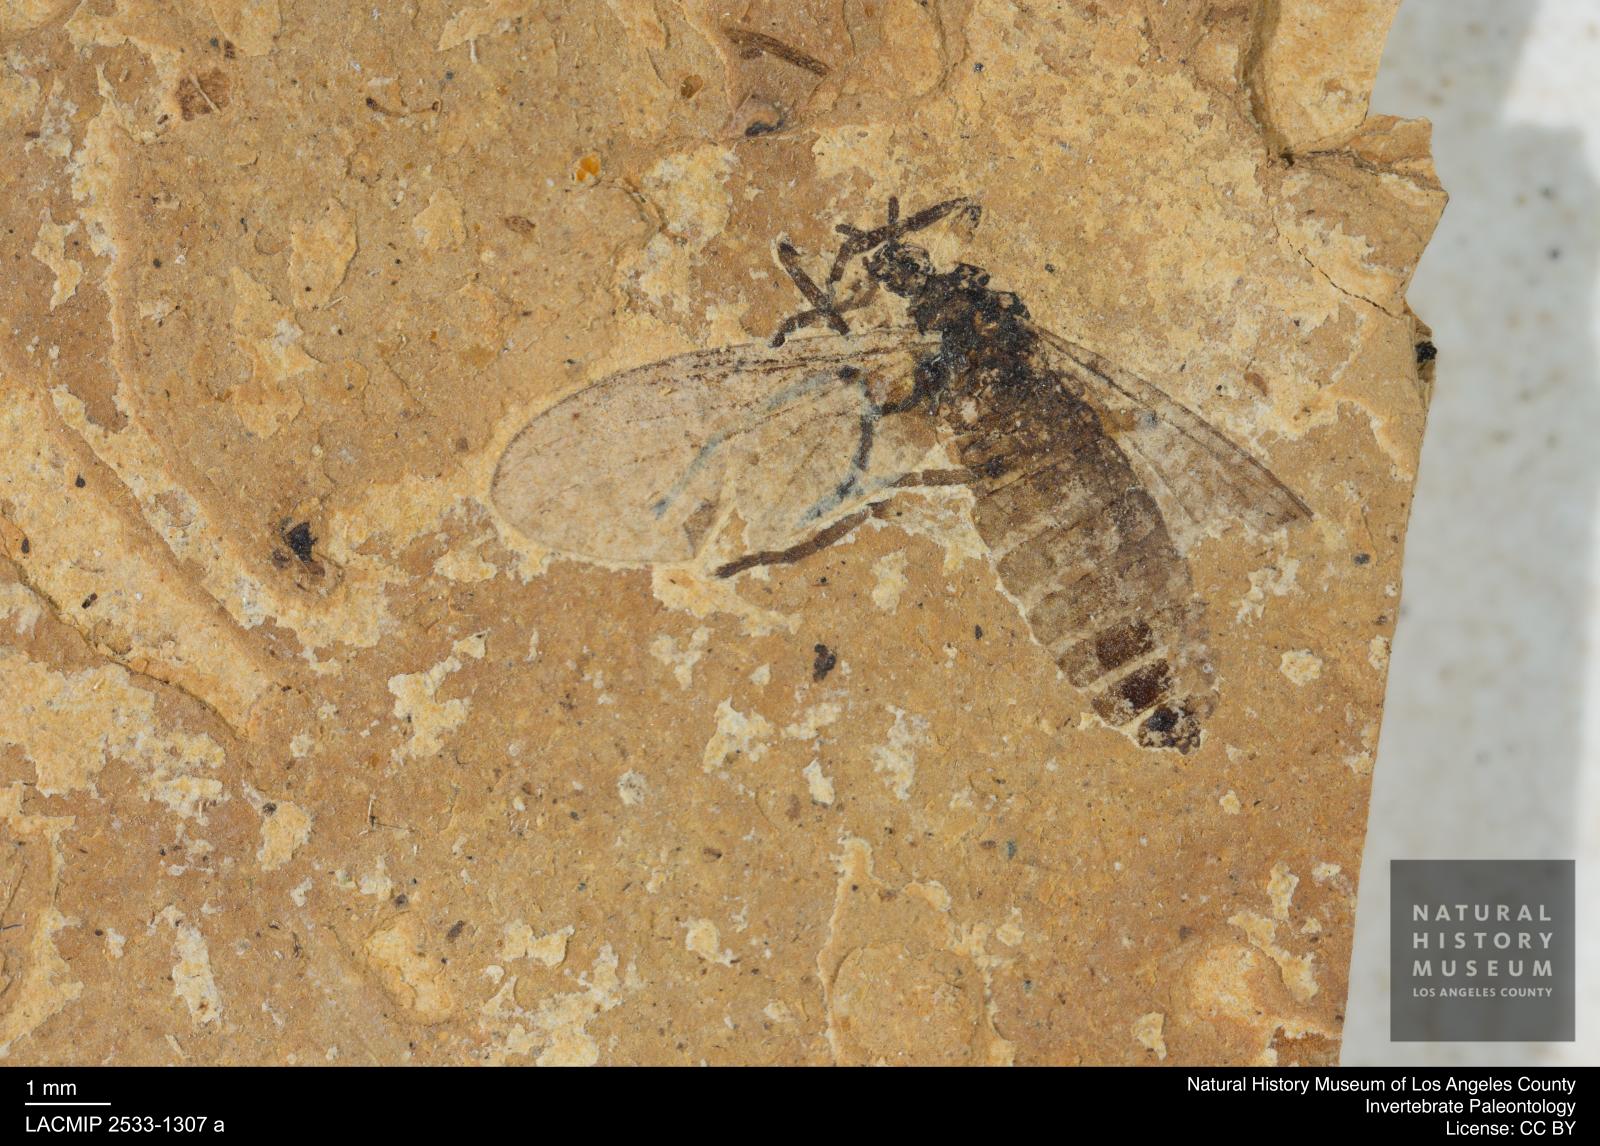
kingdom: Animalia
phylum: Arthropoda
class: Insecta
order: Diptera
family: Bibionidae
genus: Plecia
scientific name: Plecia pinguis
